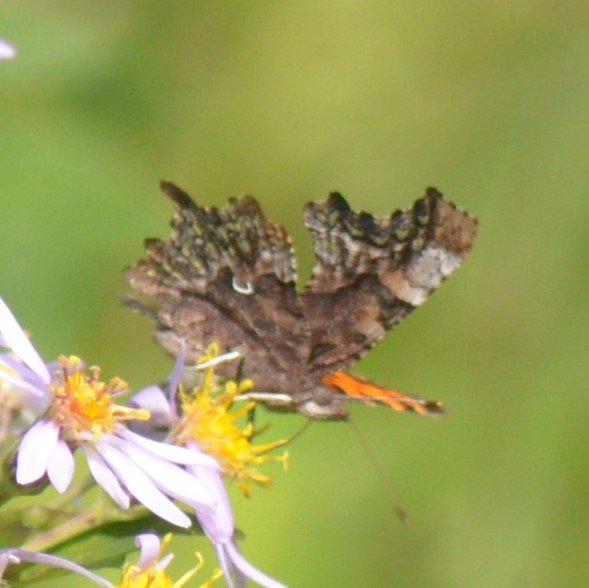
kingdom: Animalia
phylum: Arthropoda
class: Insecta
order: Lepidoptera
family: Nymphalidae
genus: Polygonia
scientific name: Polygonia faunus
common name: Green Comma
